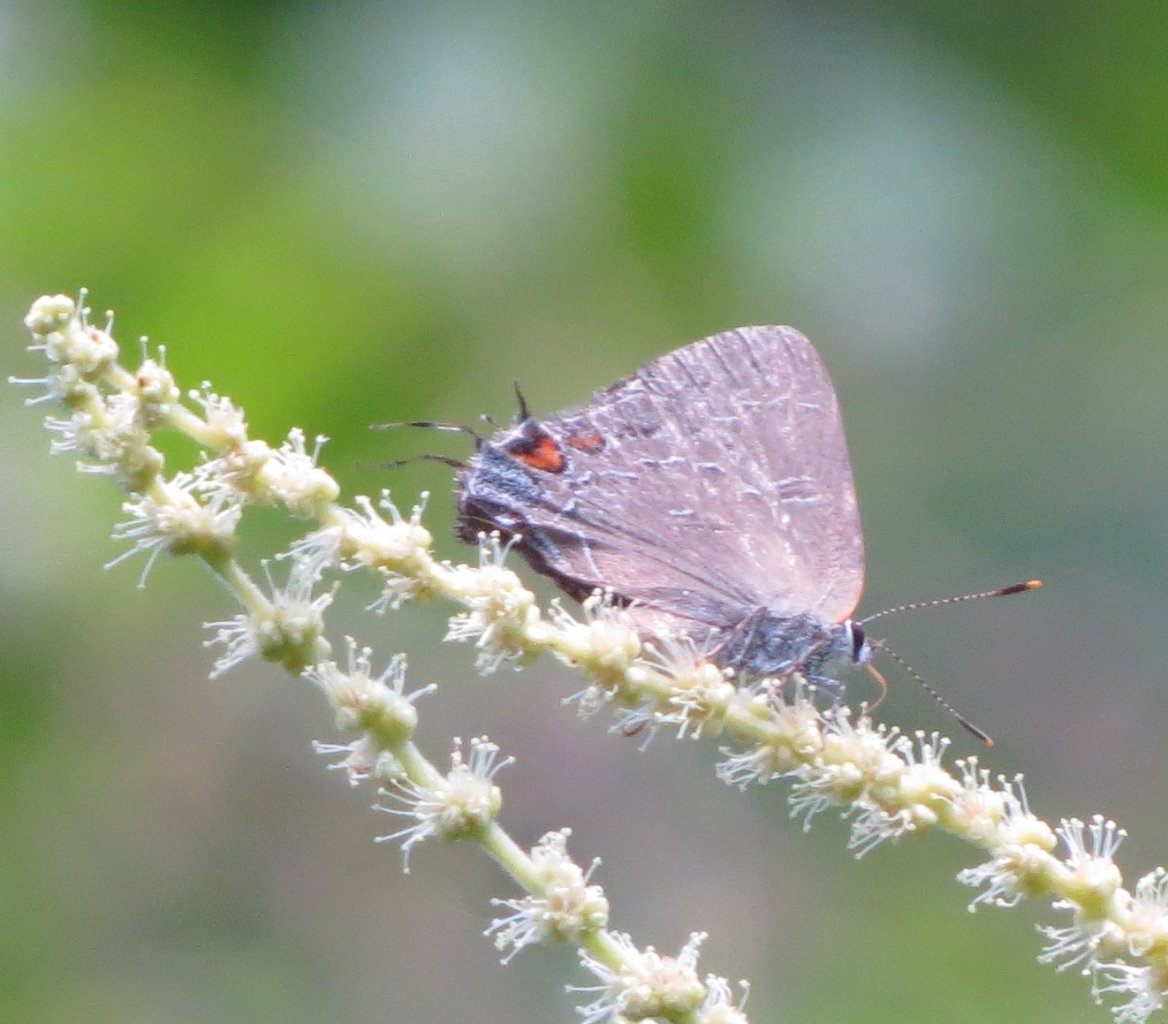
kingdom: Animalia
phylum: Arthropoda
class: Insecta
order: Lepidoptera
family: Lycaenidae
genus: Satyrium
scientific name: Satyrium calanus
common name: Banded Hairstreak
